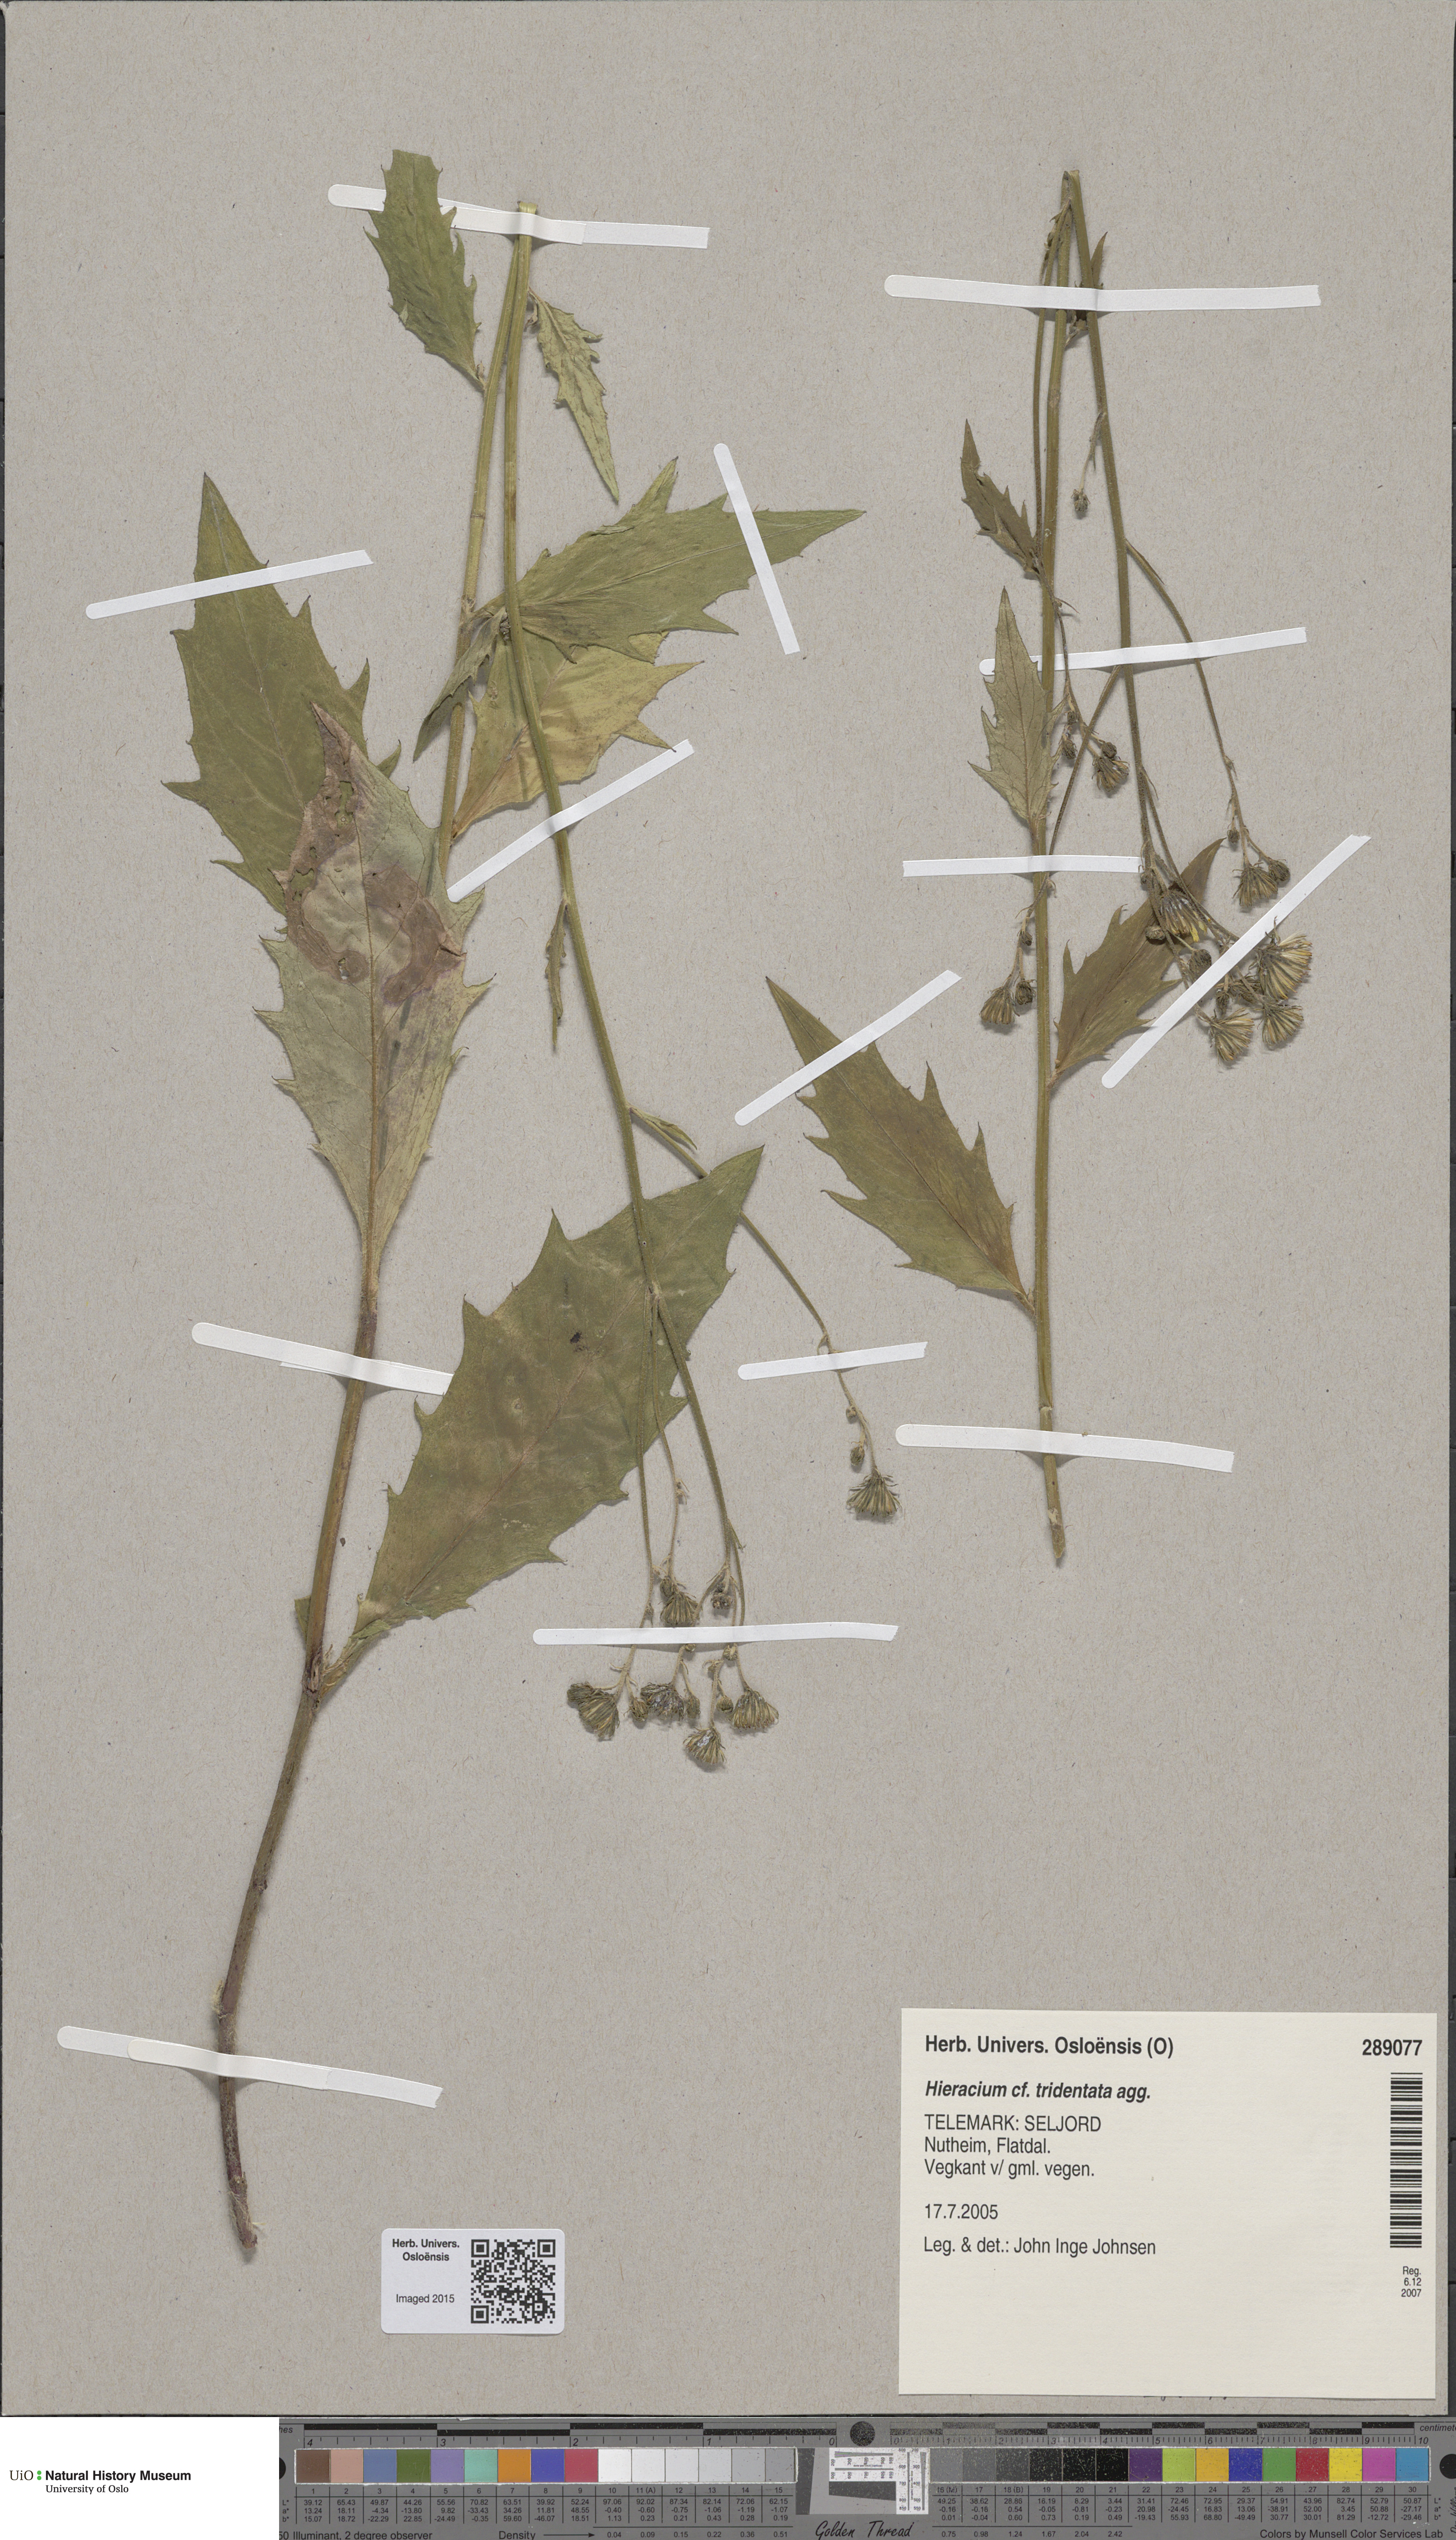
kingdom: Plantae
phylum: Tracheophyta
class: Magnoliopsida
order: Asterales
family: Asteraceae
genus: Hieracium
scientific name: Hieracium tridentatum
